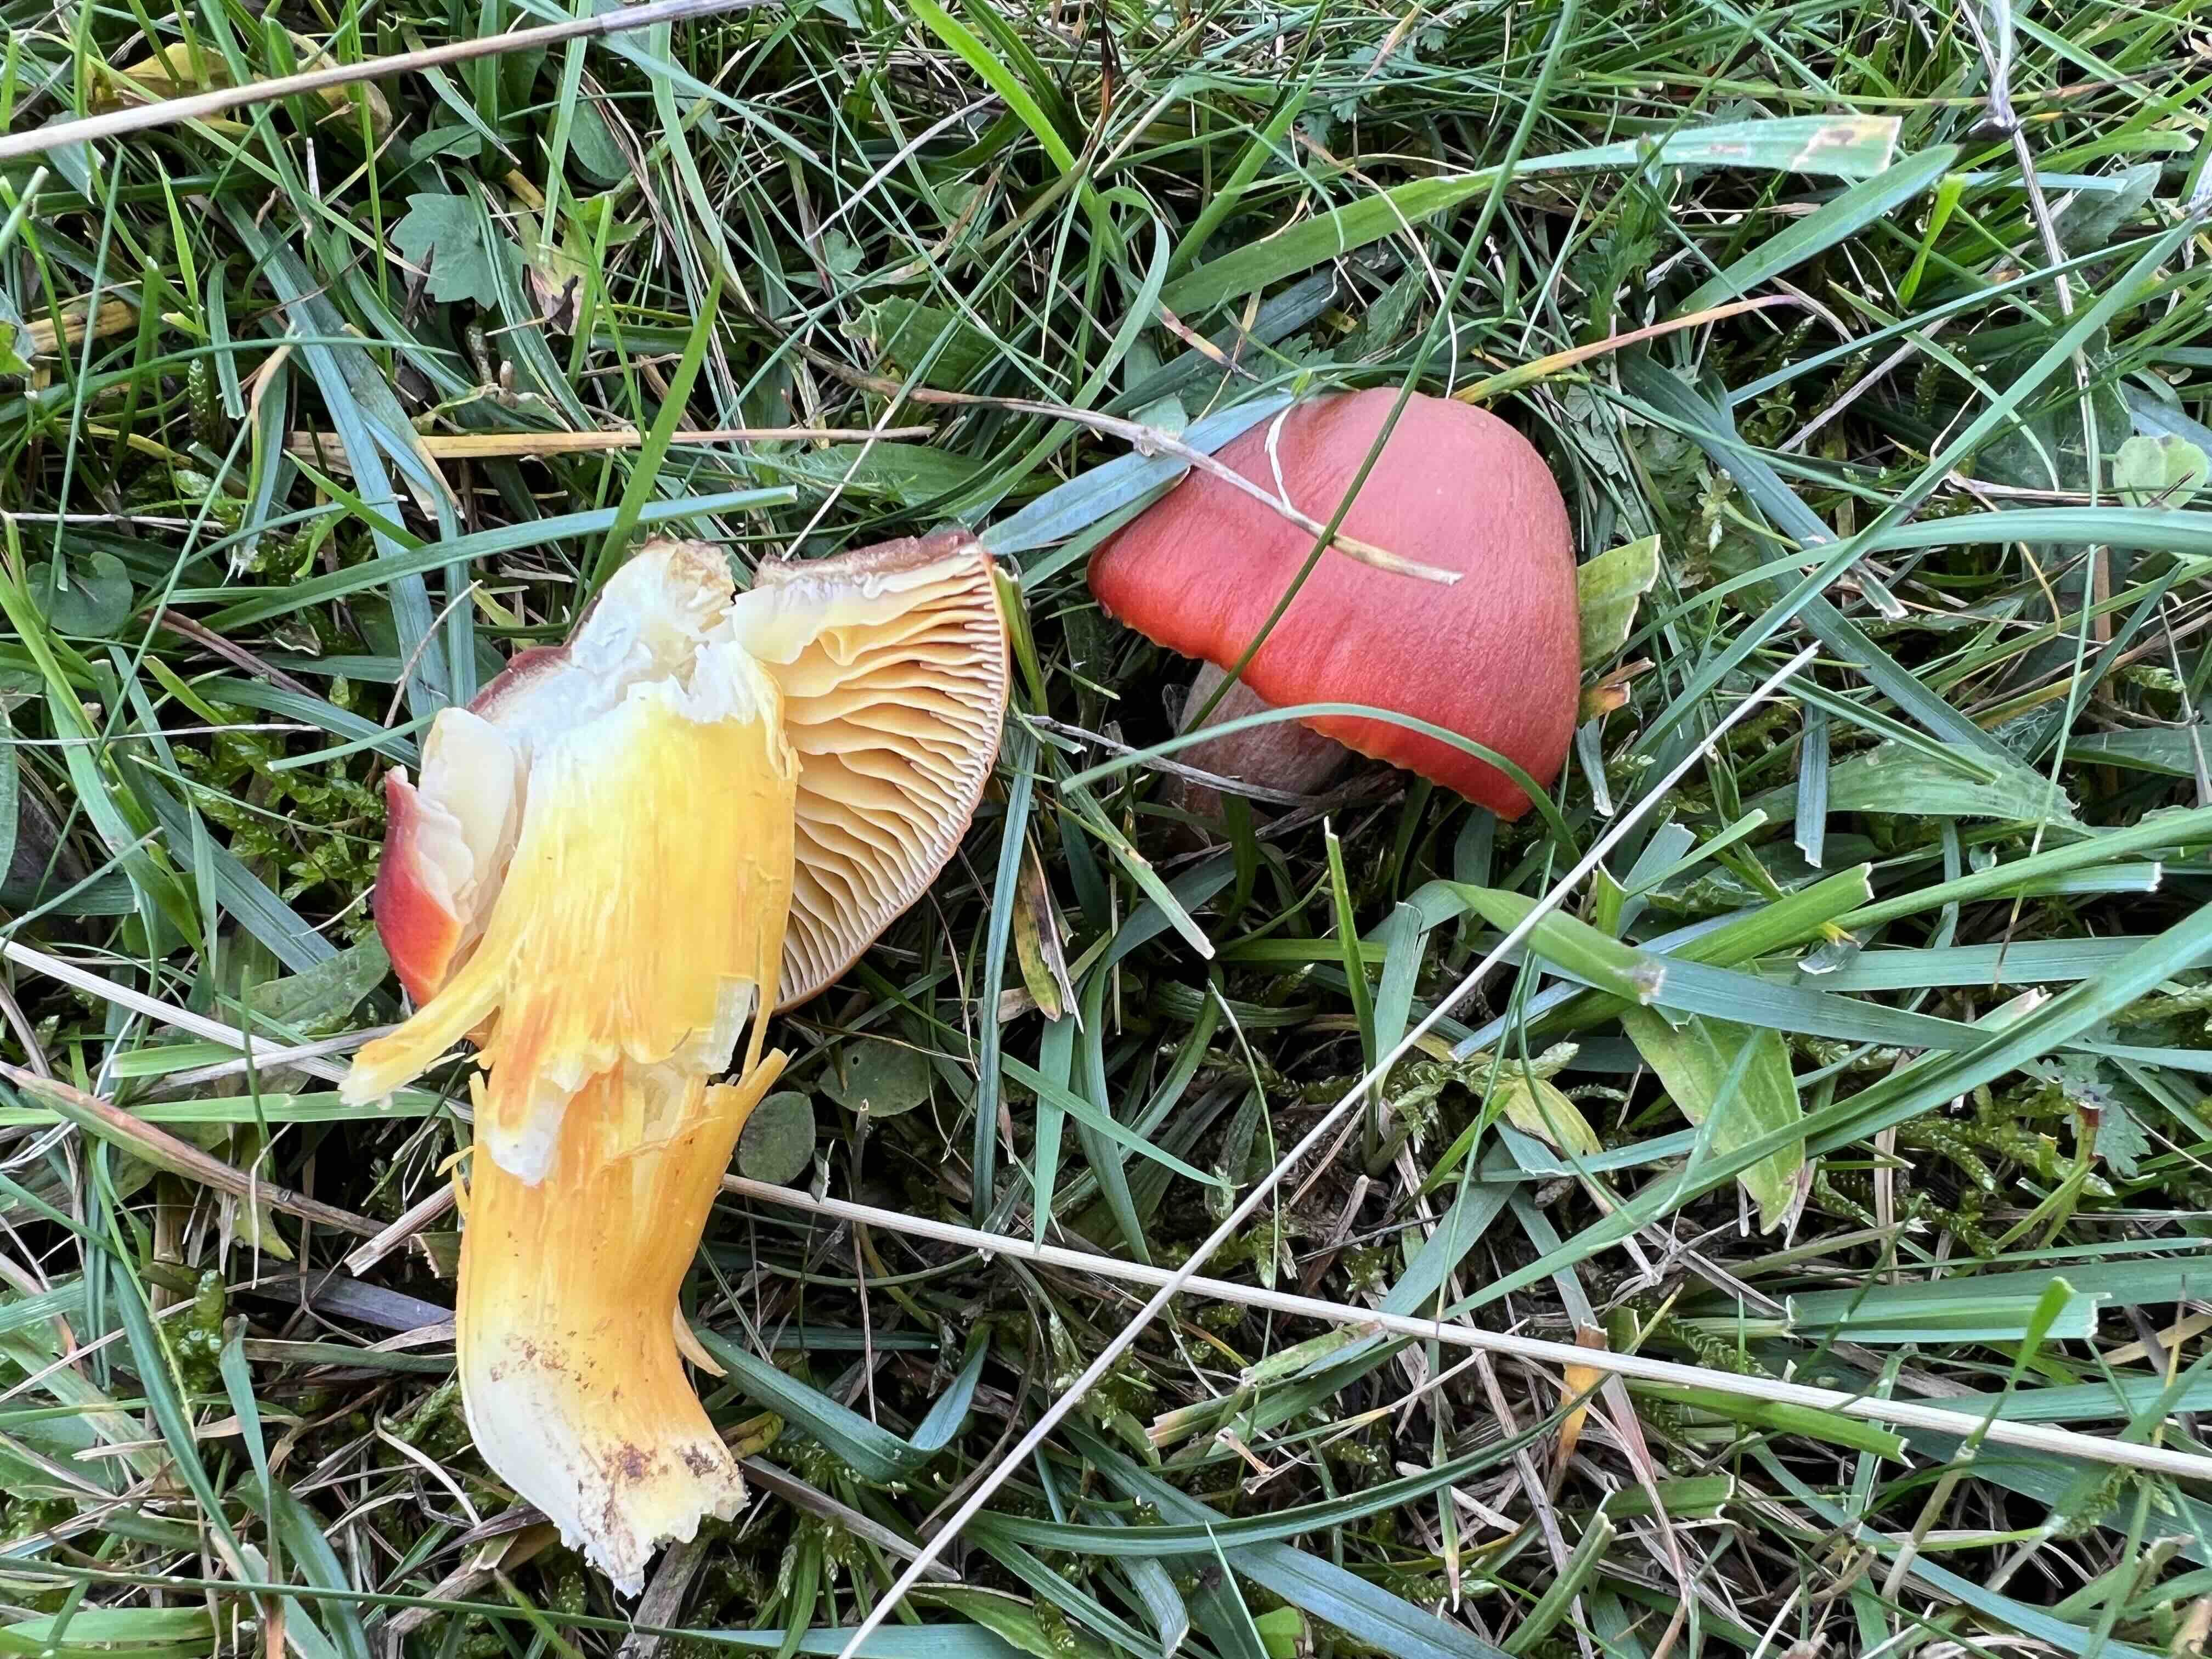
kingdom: Fungi
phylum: Basidiomycota
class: Agaricomycetes
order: Agaricales
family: Hygrophoraceae
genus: Hygrocybe
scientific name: Hygrocybe punicea
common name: skarlagen-vokshat
